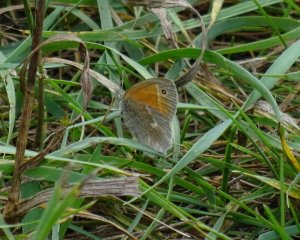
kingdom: Animalia
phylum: Arthropoda
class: Insecta
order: Lepidoptera
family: Nymphalidae
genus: Coenonympha
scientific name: Coenonympha tullia
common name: Large Heath
